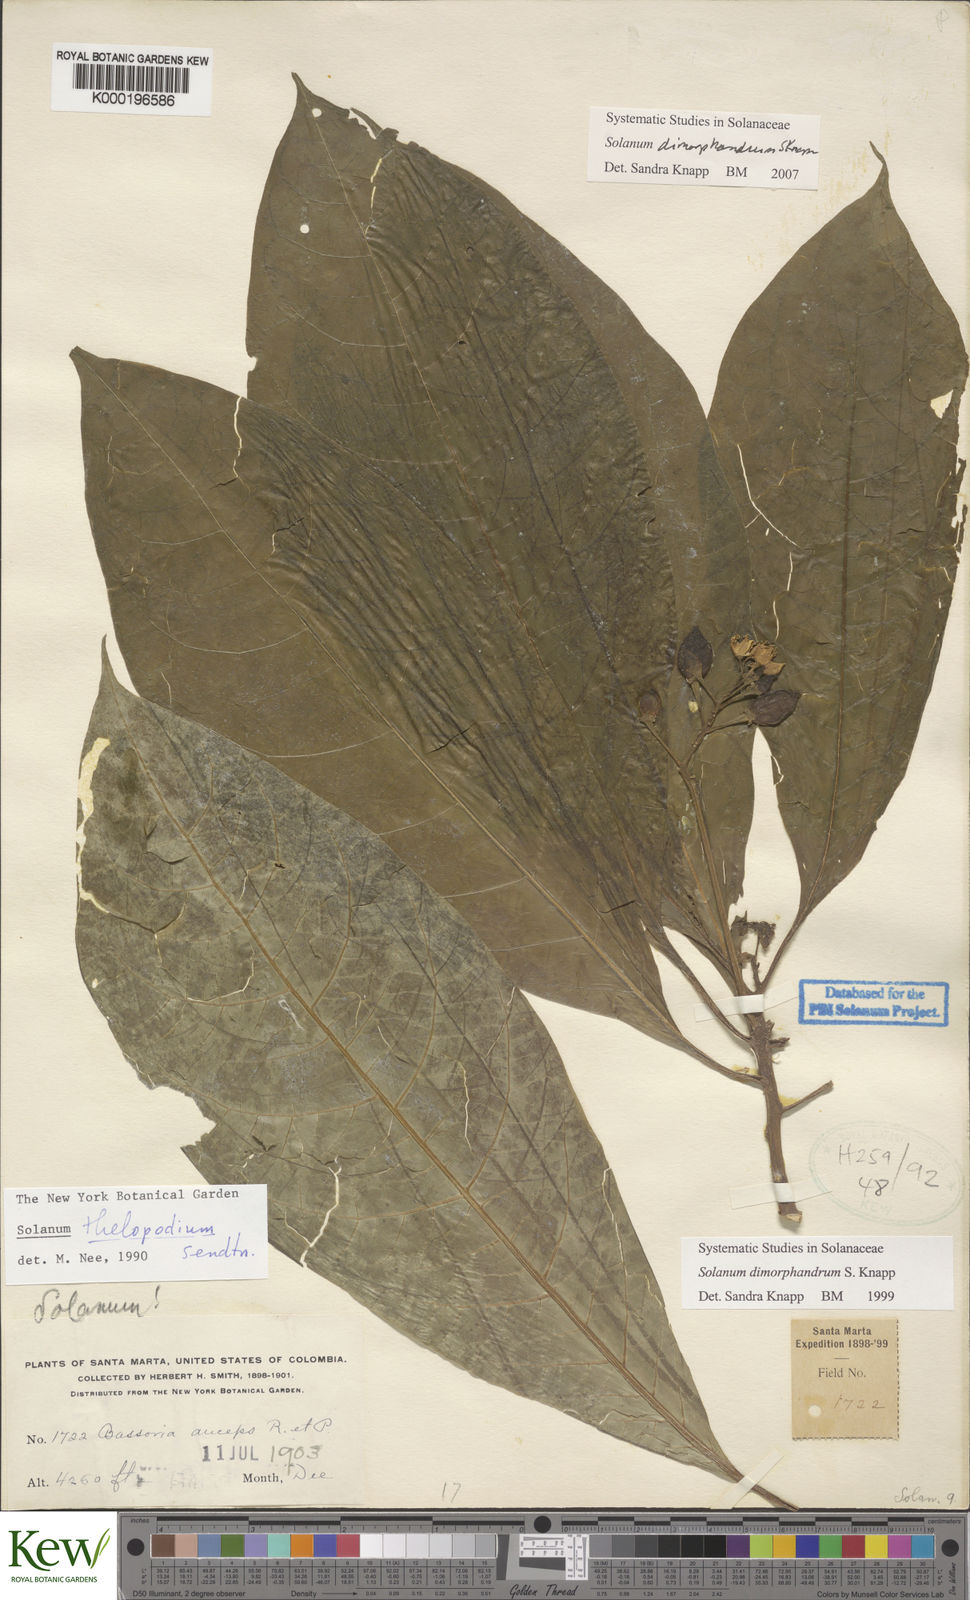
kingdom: Plantae
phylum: Tracheophyta
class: Magnoliopsida
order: Solanales
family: Solanaceae
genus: Solanum
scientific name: Solanum dimorphandrum
